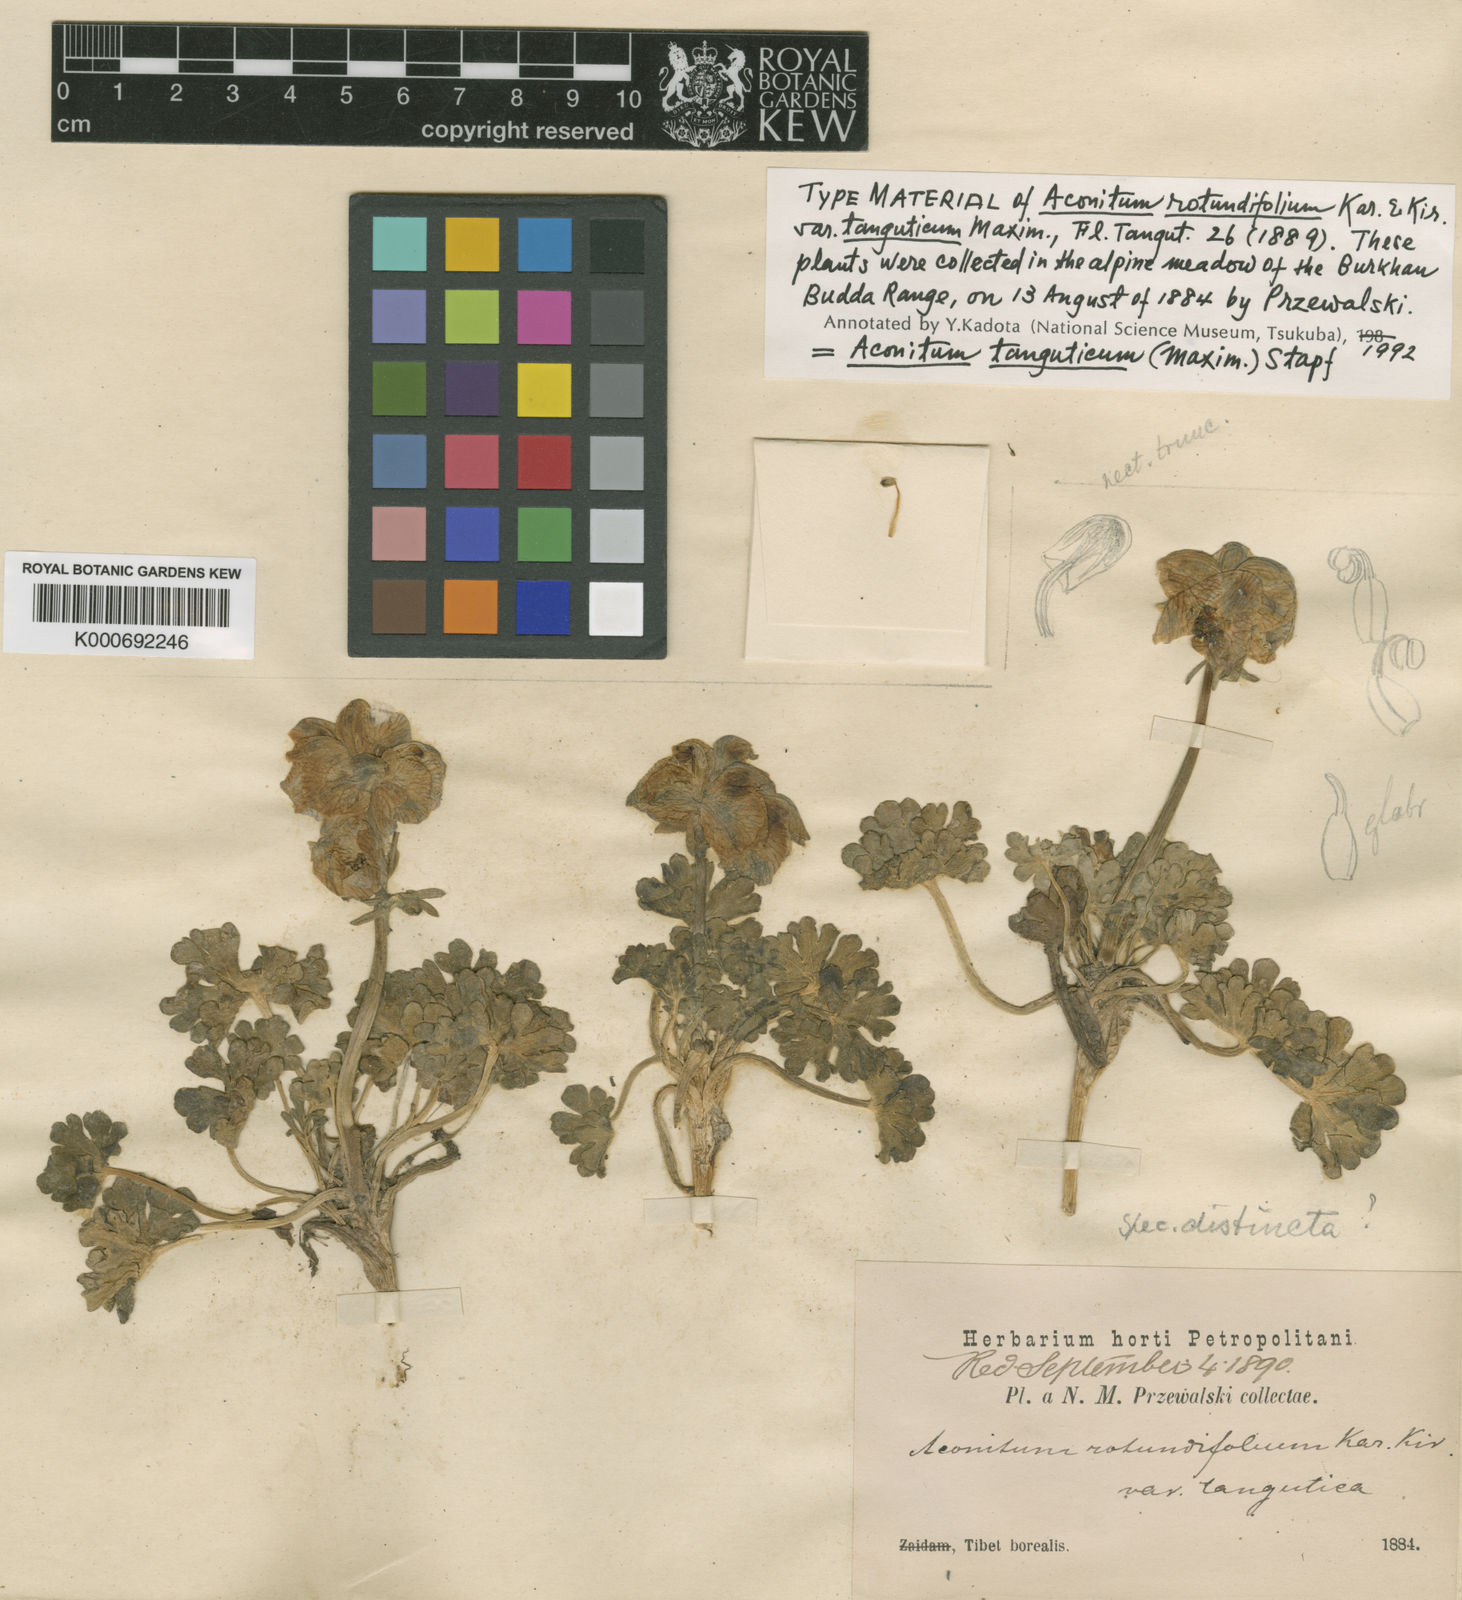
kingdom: Plantae
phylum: Tracheophyta
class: Magnoliopsida
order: Ranunculales
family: Ranunculaceae
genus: Aconitum
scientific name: Aconitum tanguticum
